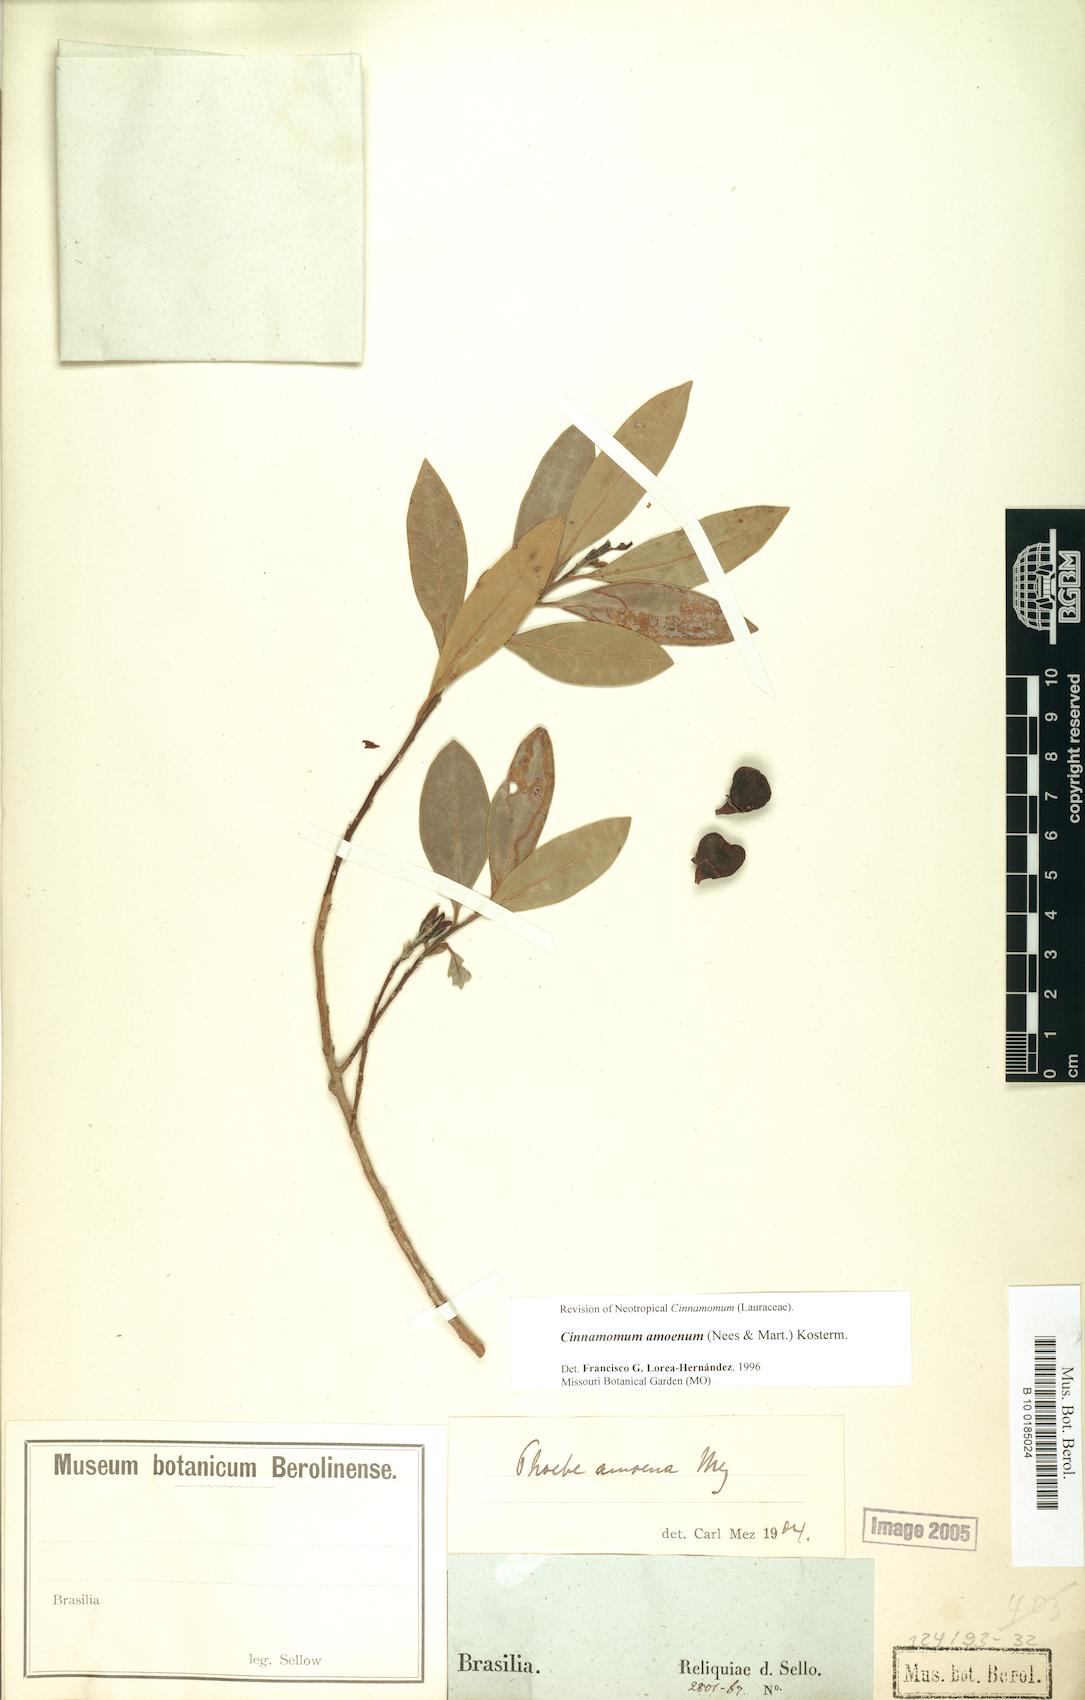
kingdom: Plantae
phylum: Tracheophyta
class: Magnoliopsida
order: Laurales
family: Lauraceae
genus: Aiouea
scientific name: Aiouea amoena
